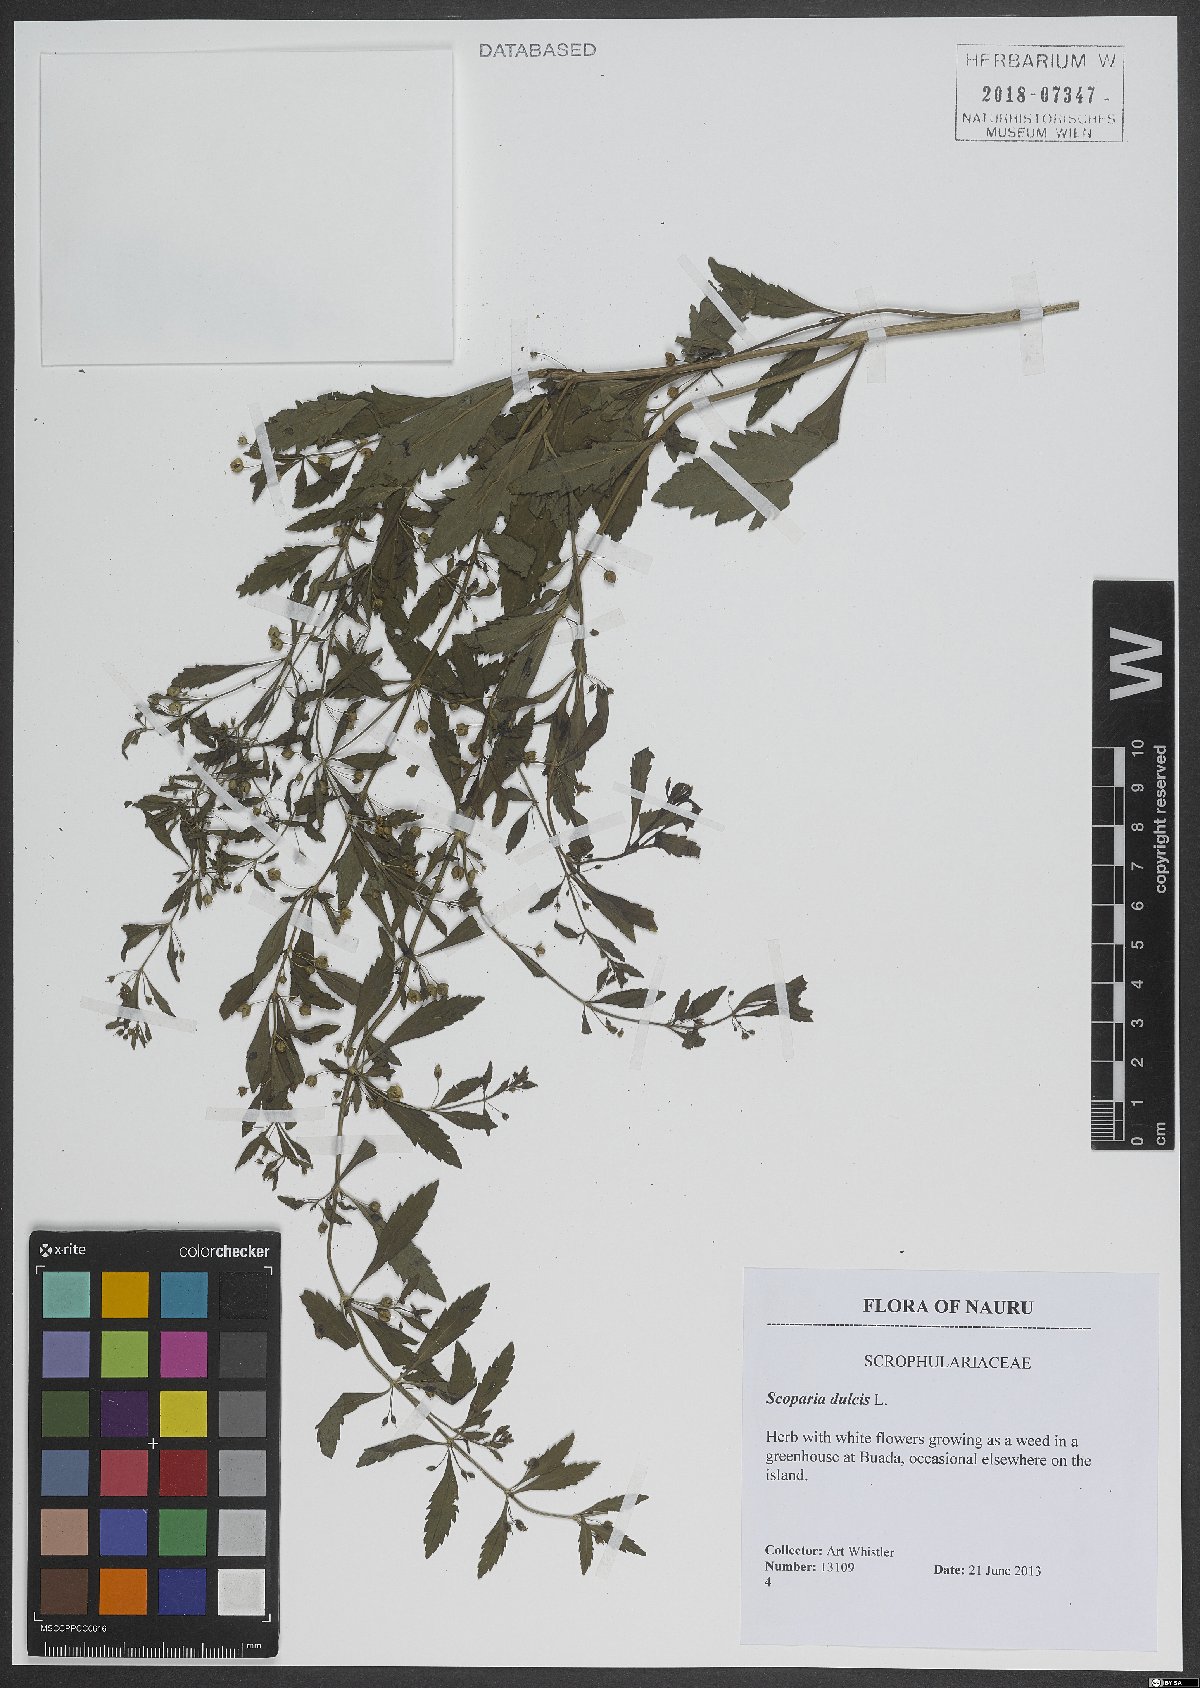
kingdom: Plantae
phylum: Tracheophyta
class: Magnoliopsida
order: Lamiales
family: Plantaginaceae
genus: Scoparia
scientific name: Scoparia dulcis
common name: Scoparia-weed
